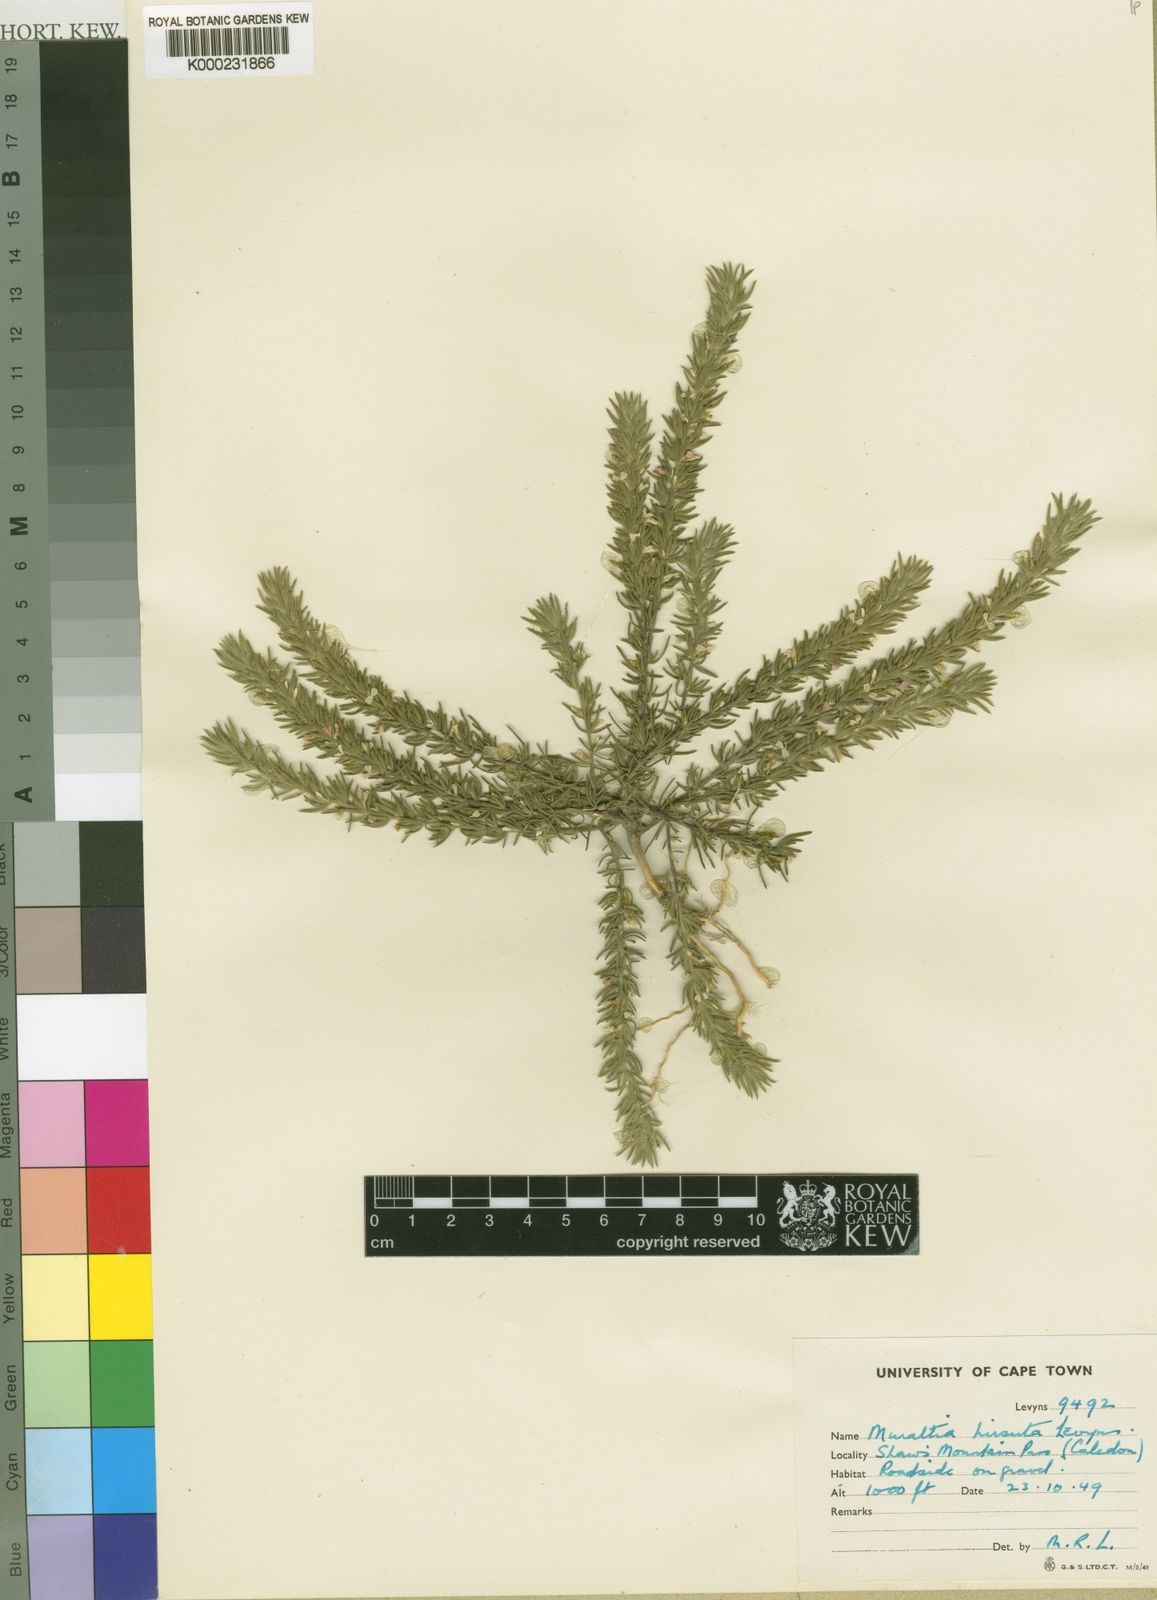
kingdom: Plantae
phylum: Tracheophyta
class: Magnoliopsida
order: Fabales
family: Polygalaceae
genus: Muraltia
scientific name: Muraltia hirsuta
